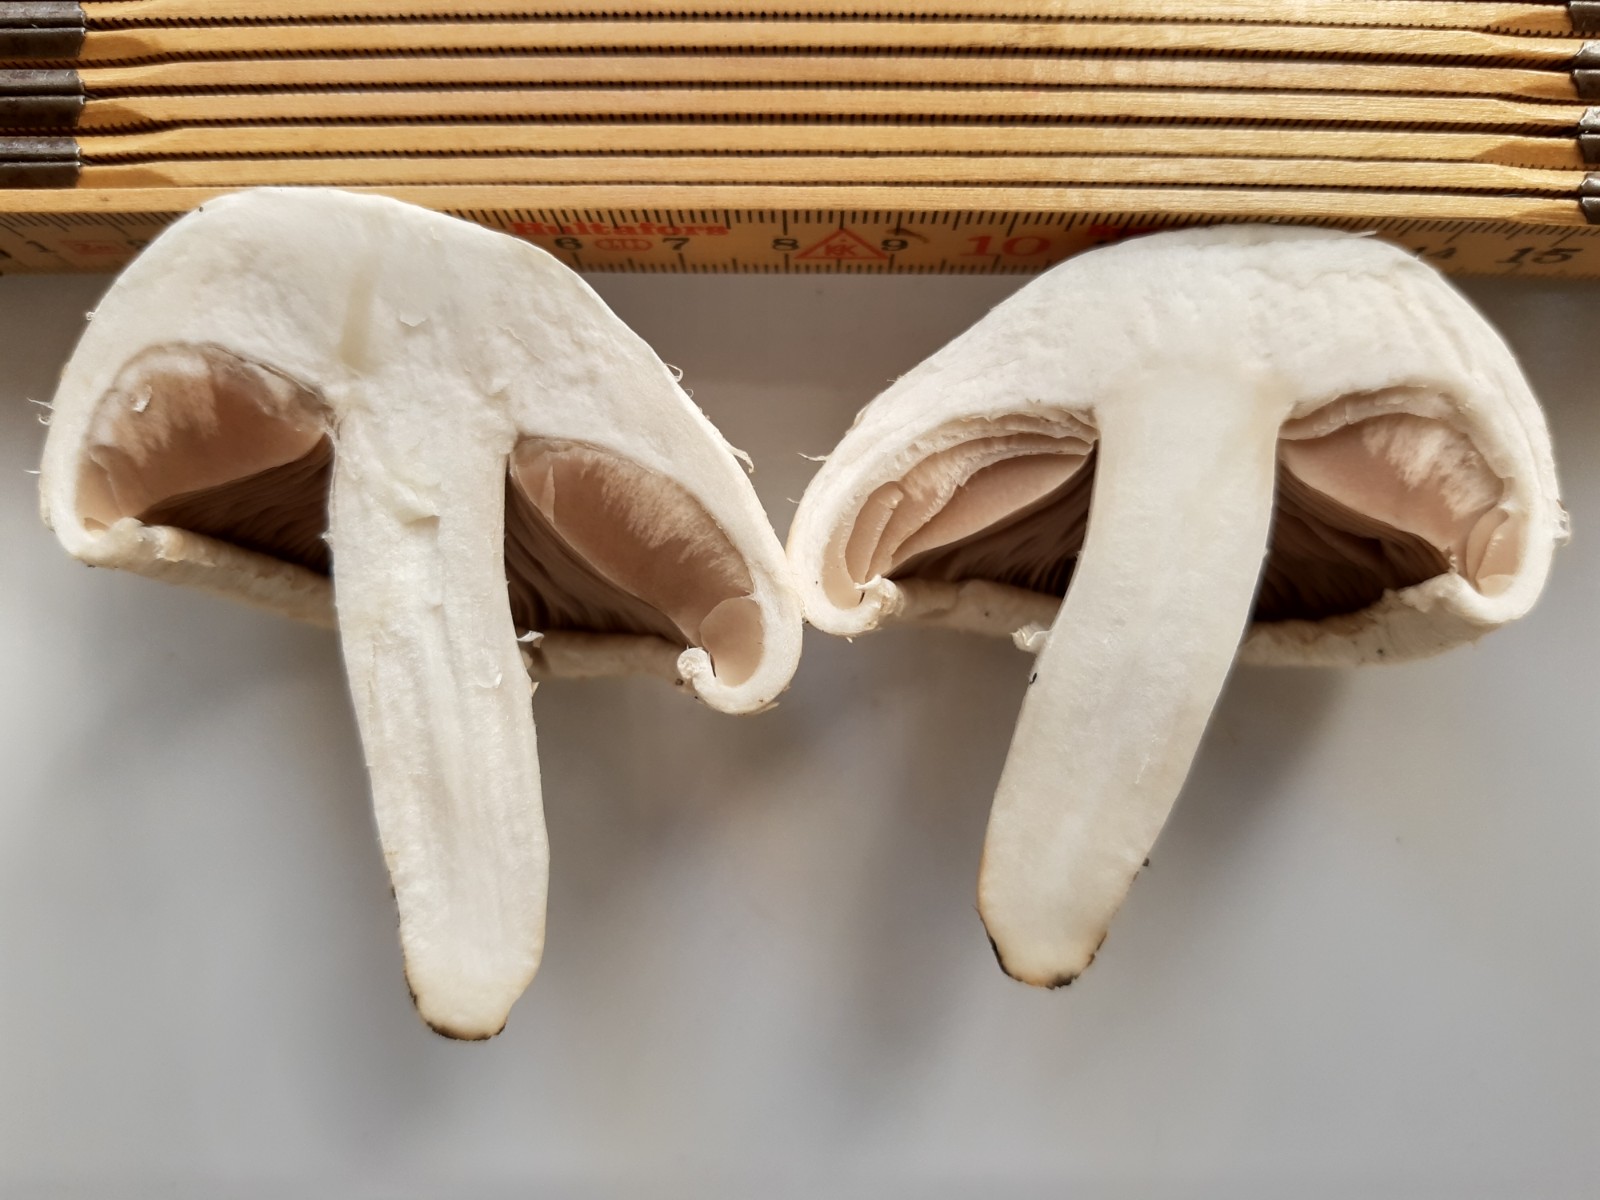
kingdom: Fungi
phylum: Basidiomycota
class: Agaricomycetes
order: Agaricales
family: Agaricaceae
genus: Agaricus
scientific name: Agaricus
